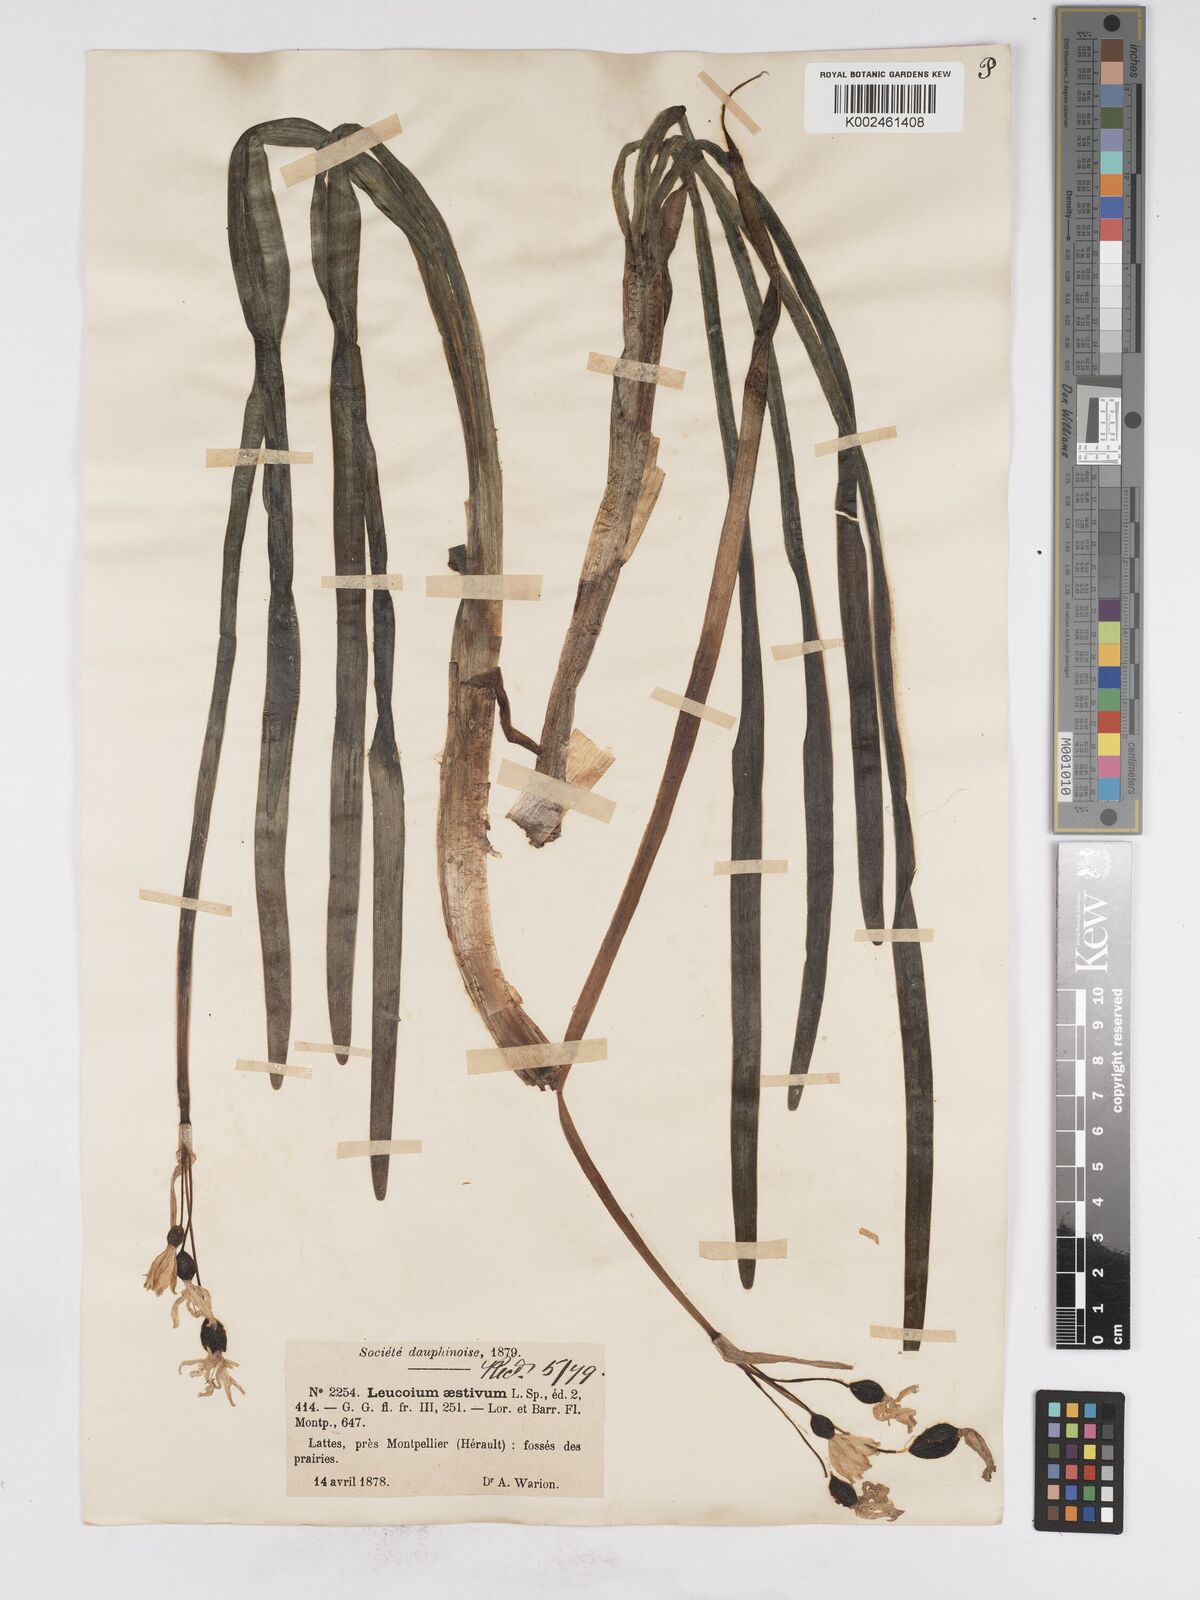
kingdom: Plantae
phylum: Tracheophyta
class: Liliopsida
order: Asparagales
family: Amaryllidaceae
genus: Leucojum
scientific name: Leucojum aestivum
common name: Summer snowflake
